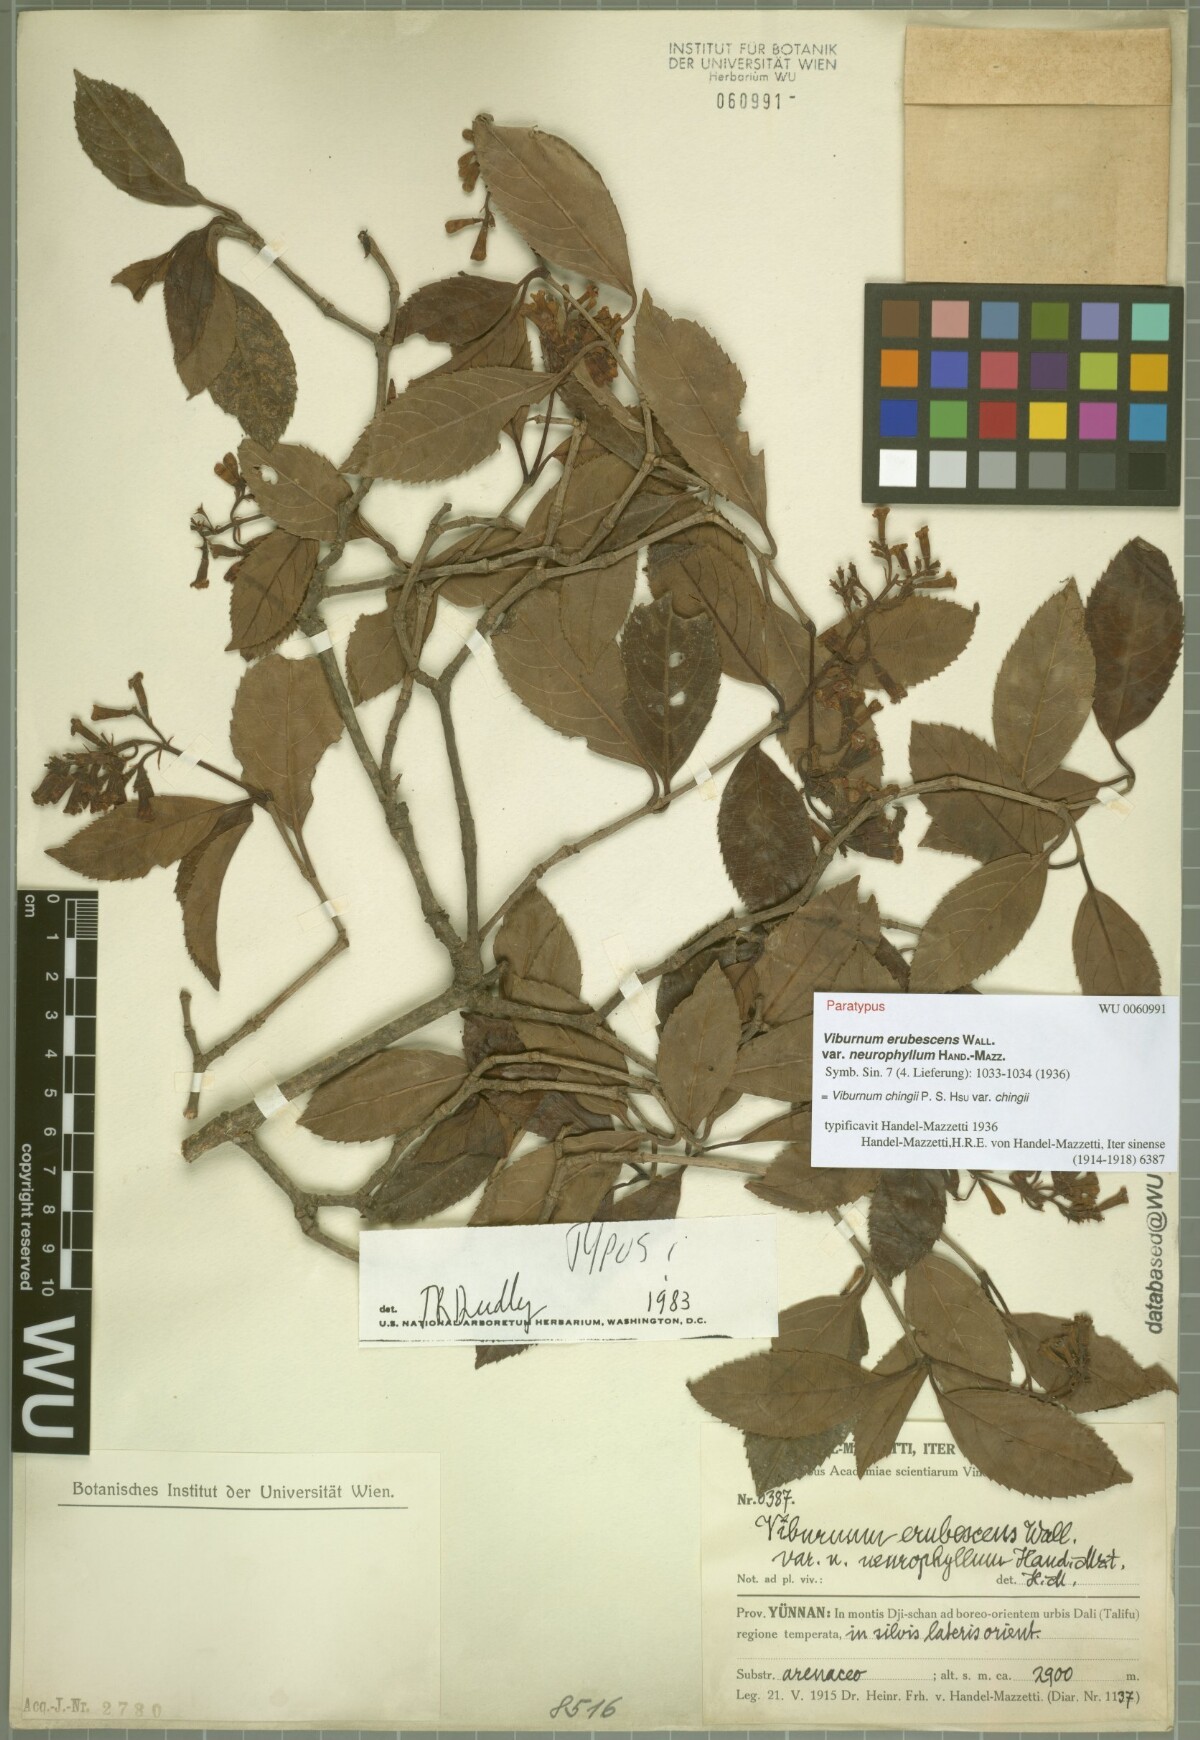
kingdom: Plantae
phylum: Tracheophyta
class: Magnoliopsida
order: Dipsacales
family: Viburnaceae
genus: Viburnum
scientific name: Viburnum chingii
